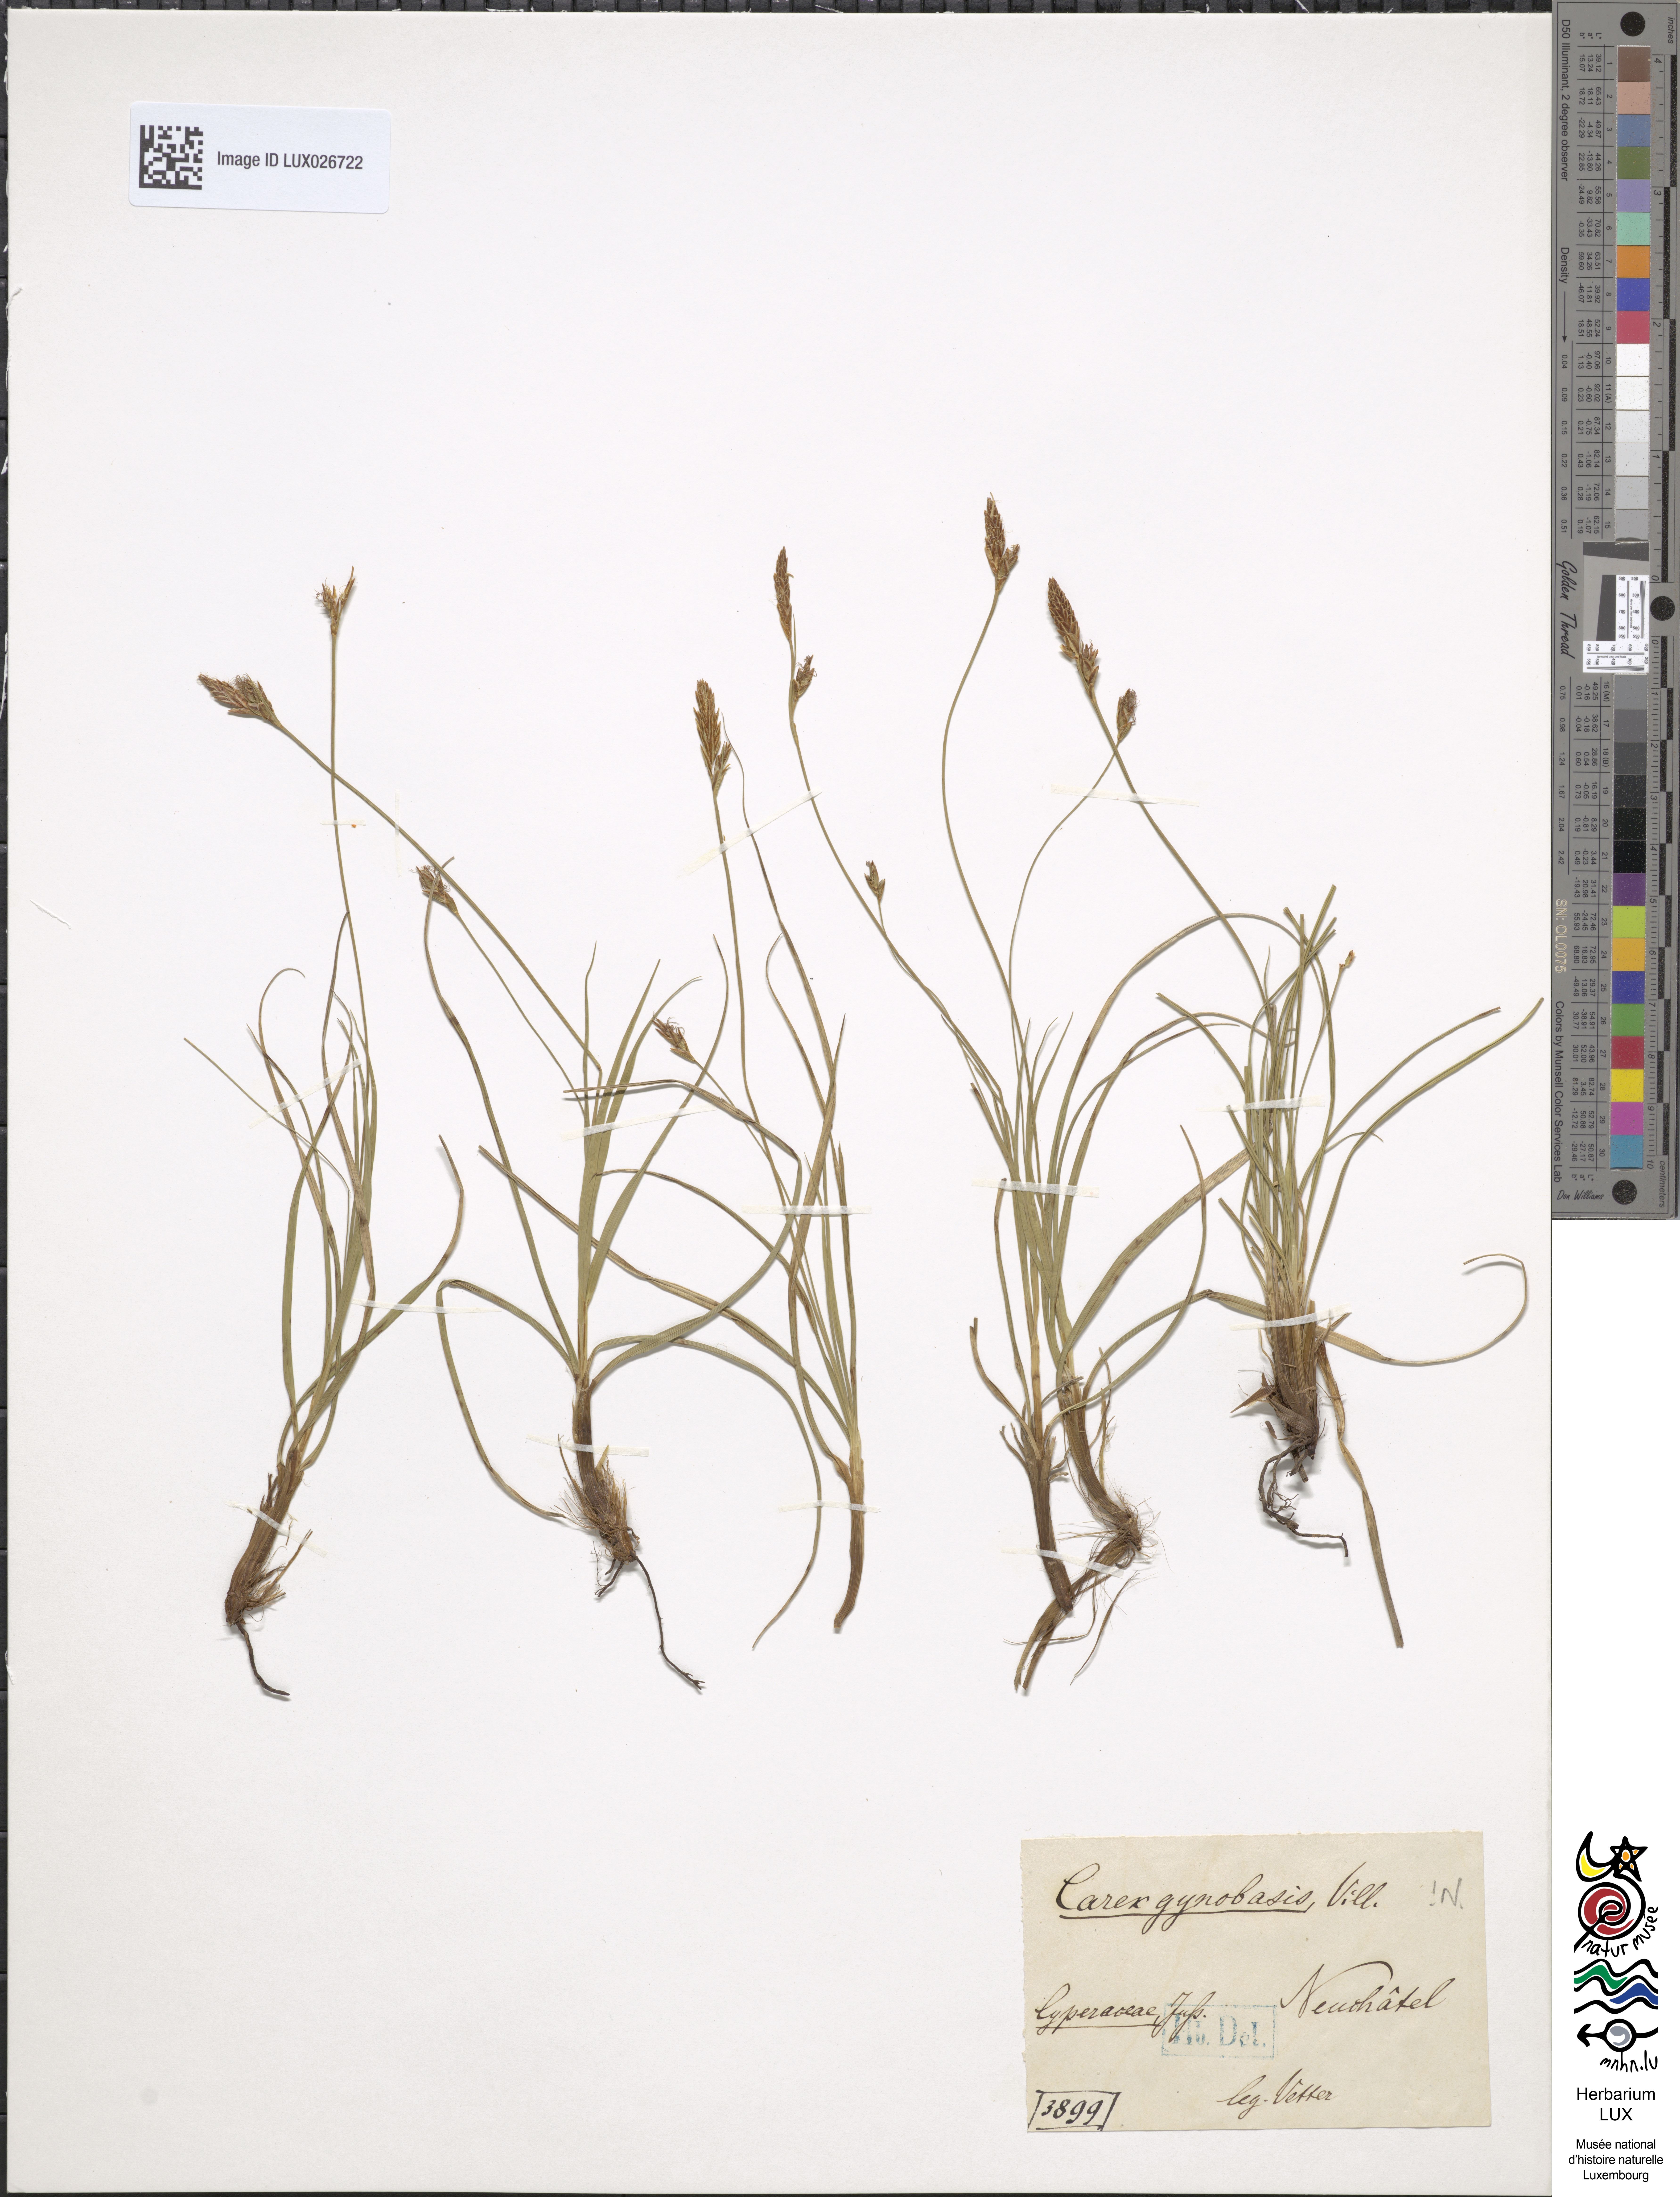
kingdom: Plantae
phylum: Tracheophyta
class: Liliopsida
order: Poales
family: Cyperaceae
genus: Carex
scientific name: Carex halleriana
